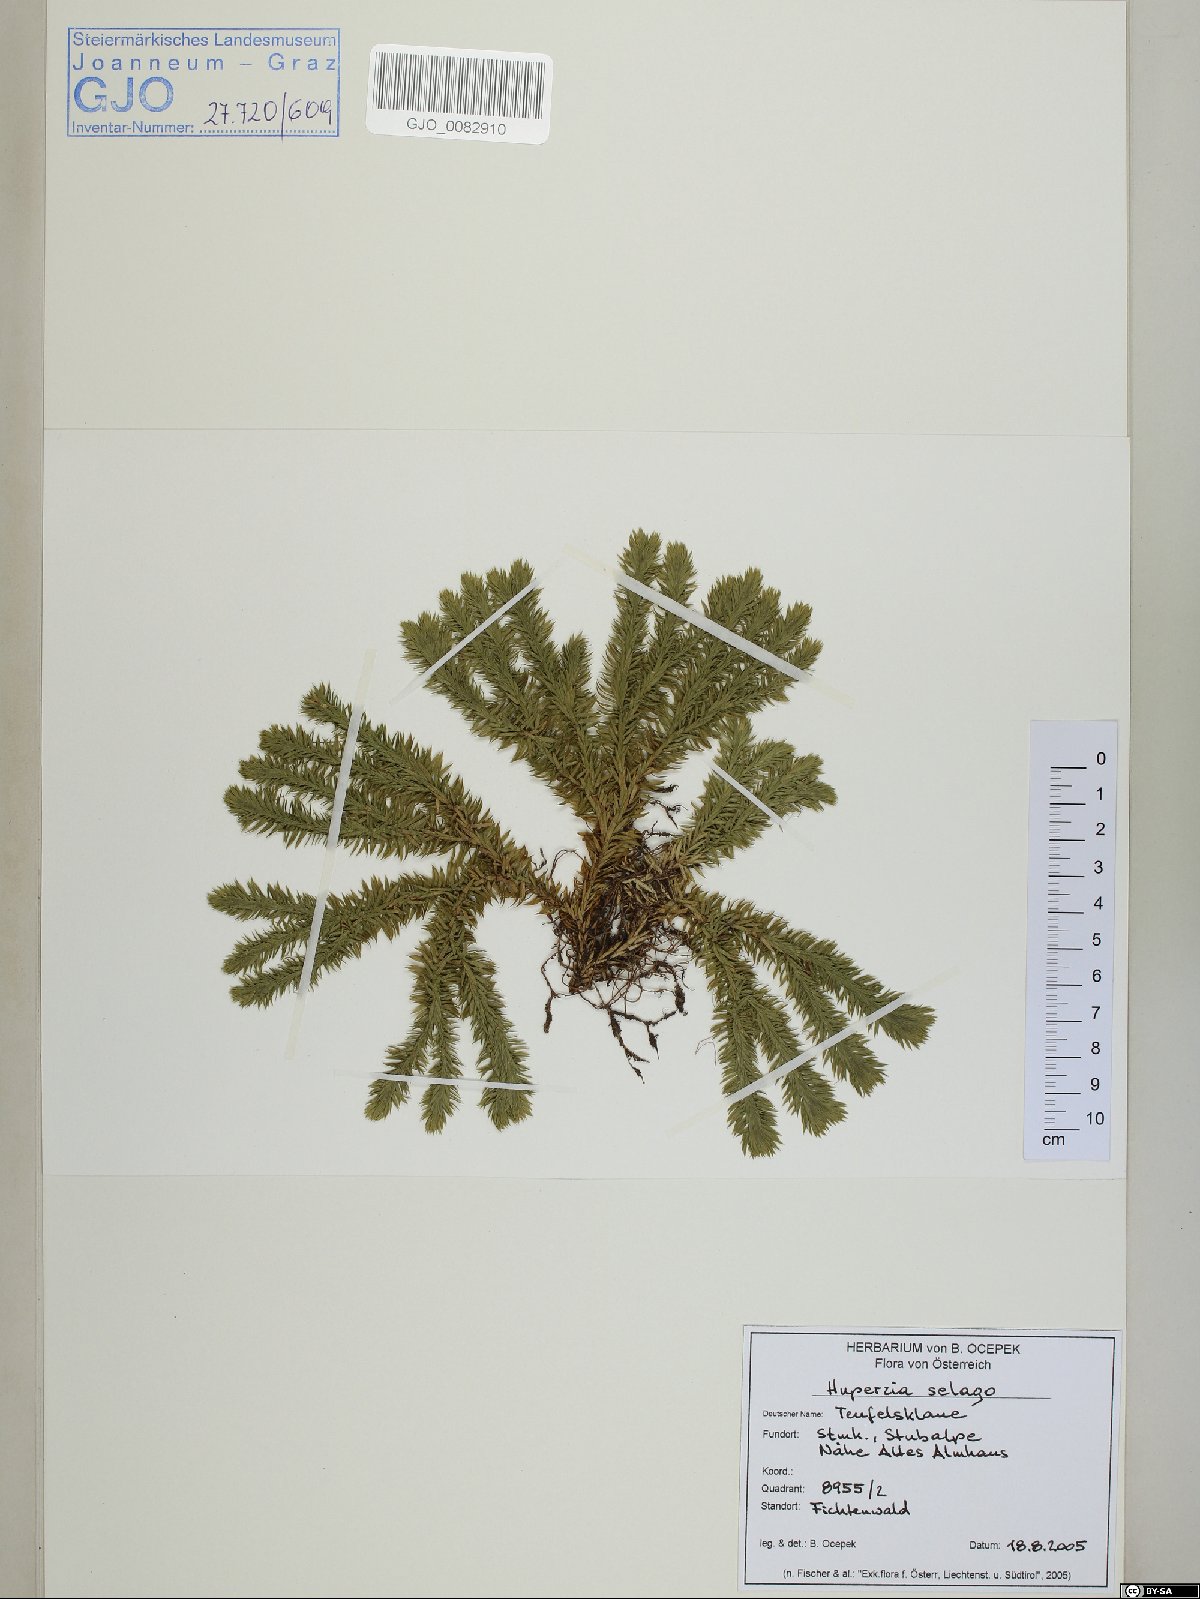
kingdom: Plantae
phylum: Tracheophyta
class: Lycopodiopsida
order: Lycopodiales
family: Lycopodiaceae
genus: Huperzia
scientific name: Huperzia selago
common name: Northern firmoss
